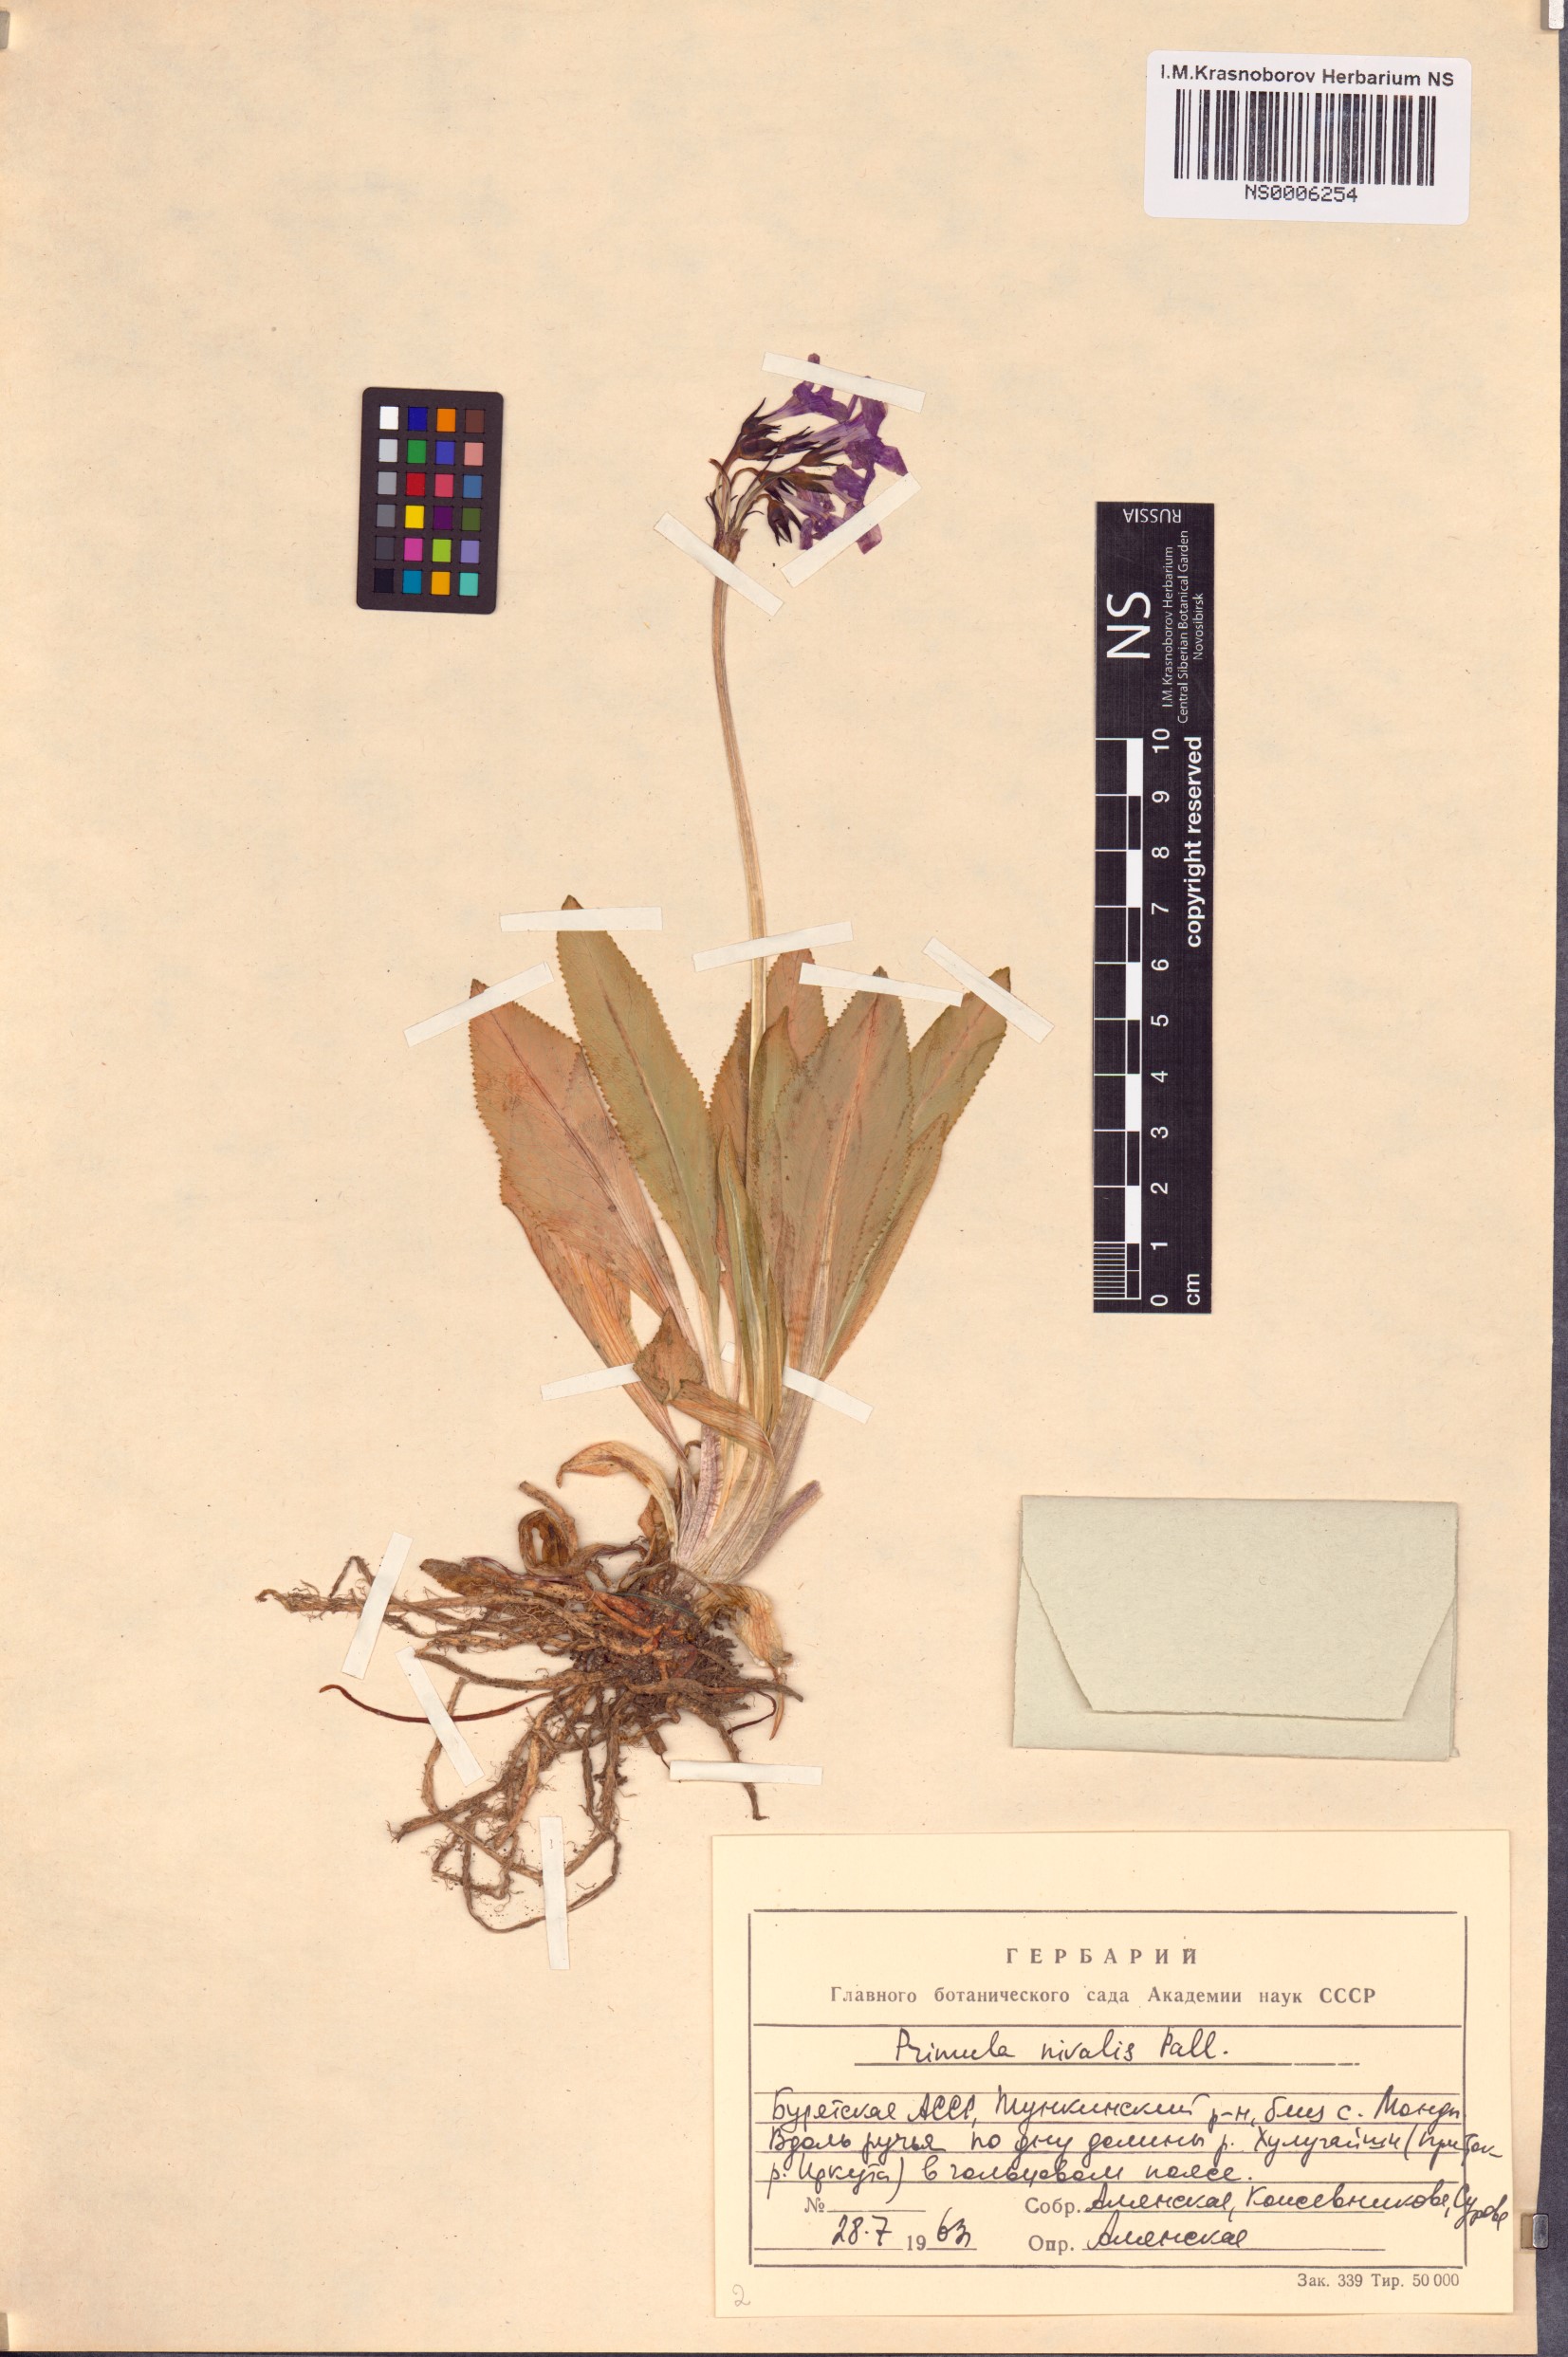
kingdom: Plantae
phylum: Tracheophyta
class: Magnoliopsida
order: Ericales
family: Primulaceae
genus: Primula
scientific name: Primula nivalis
